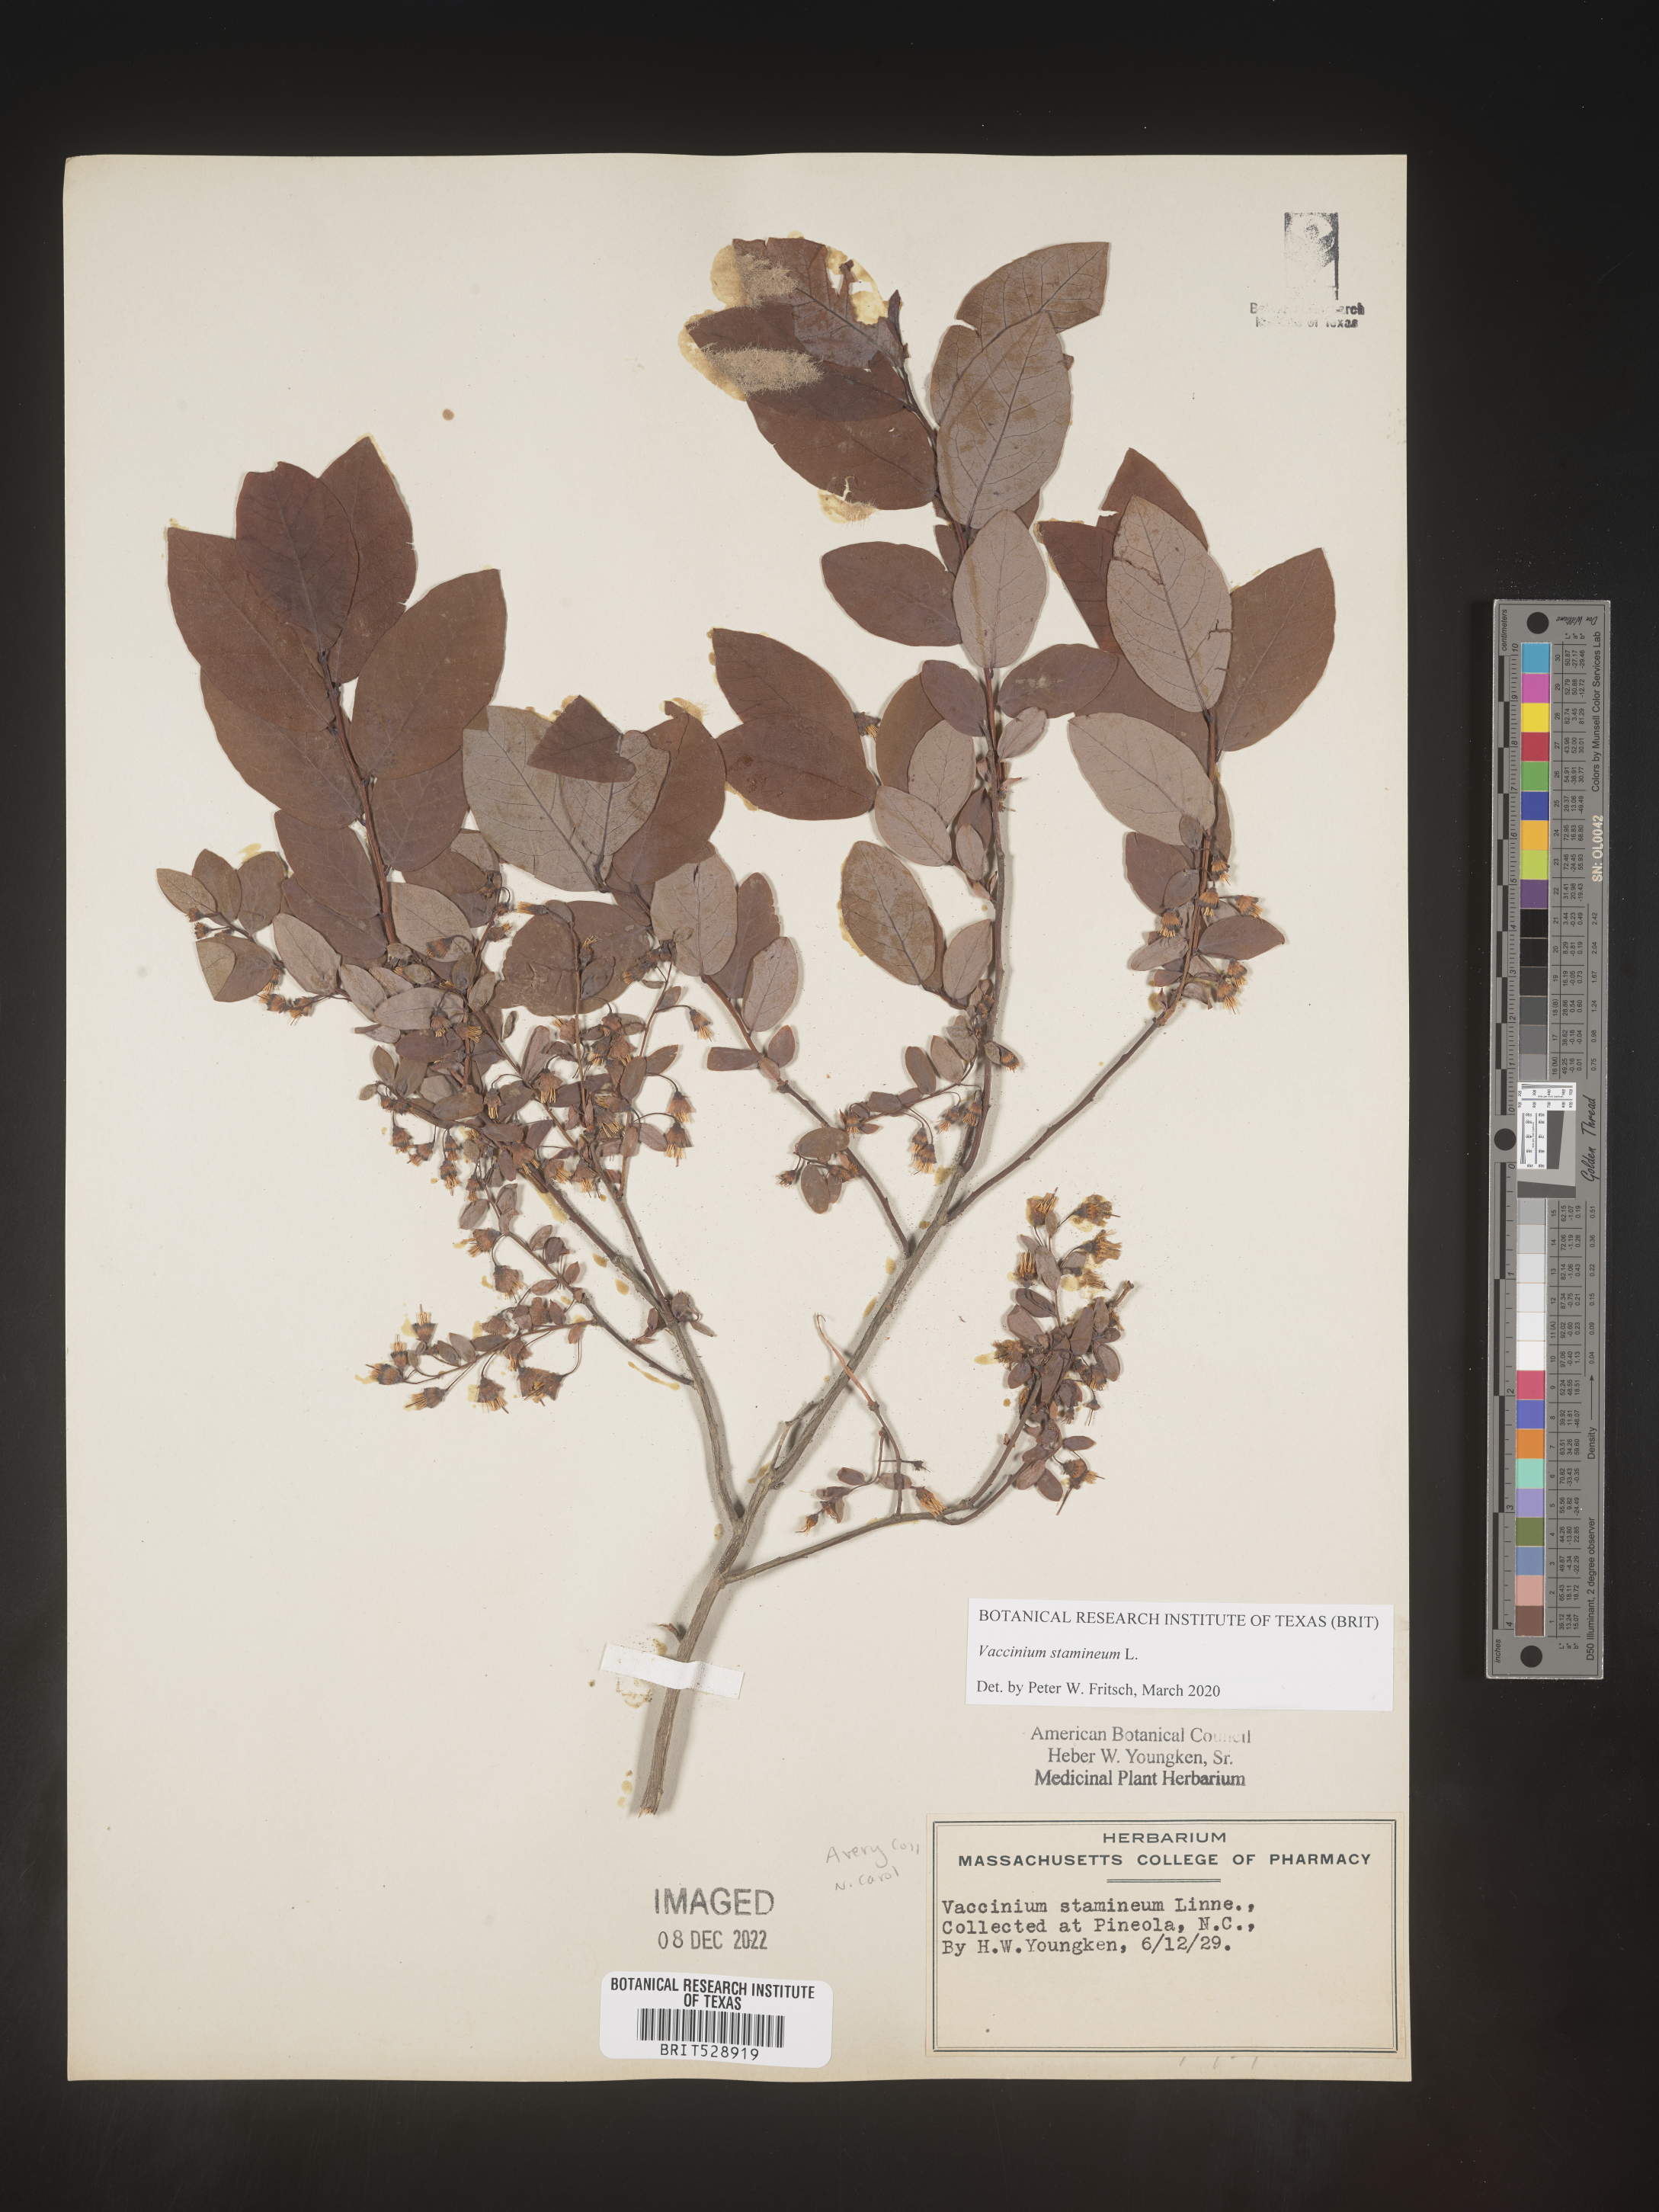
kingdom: Plantae
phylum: Tracheophyta
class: Magnoliopsida
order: Ericales
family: Ericaceae
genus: Vaccinium
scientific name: Vaccinium stamineum
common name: Deerberry
